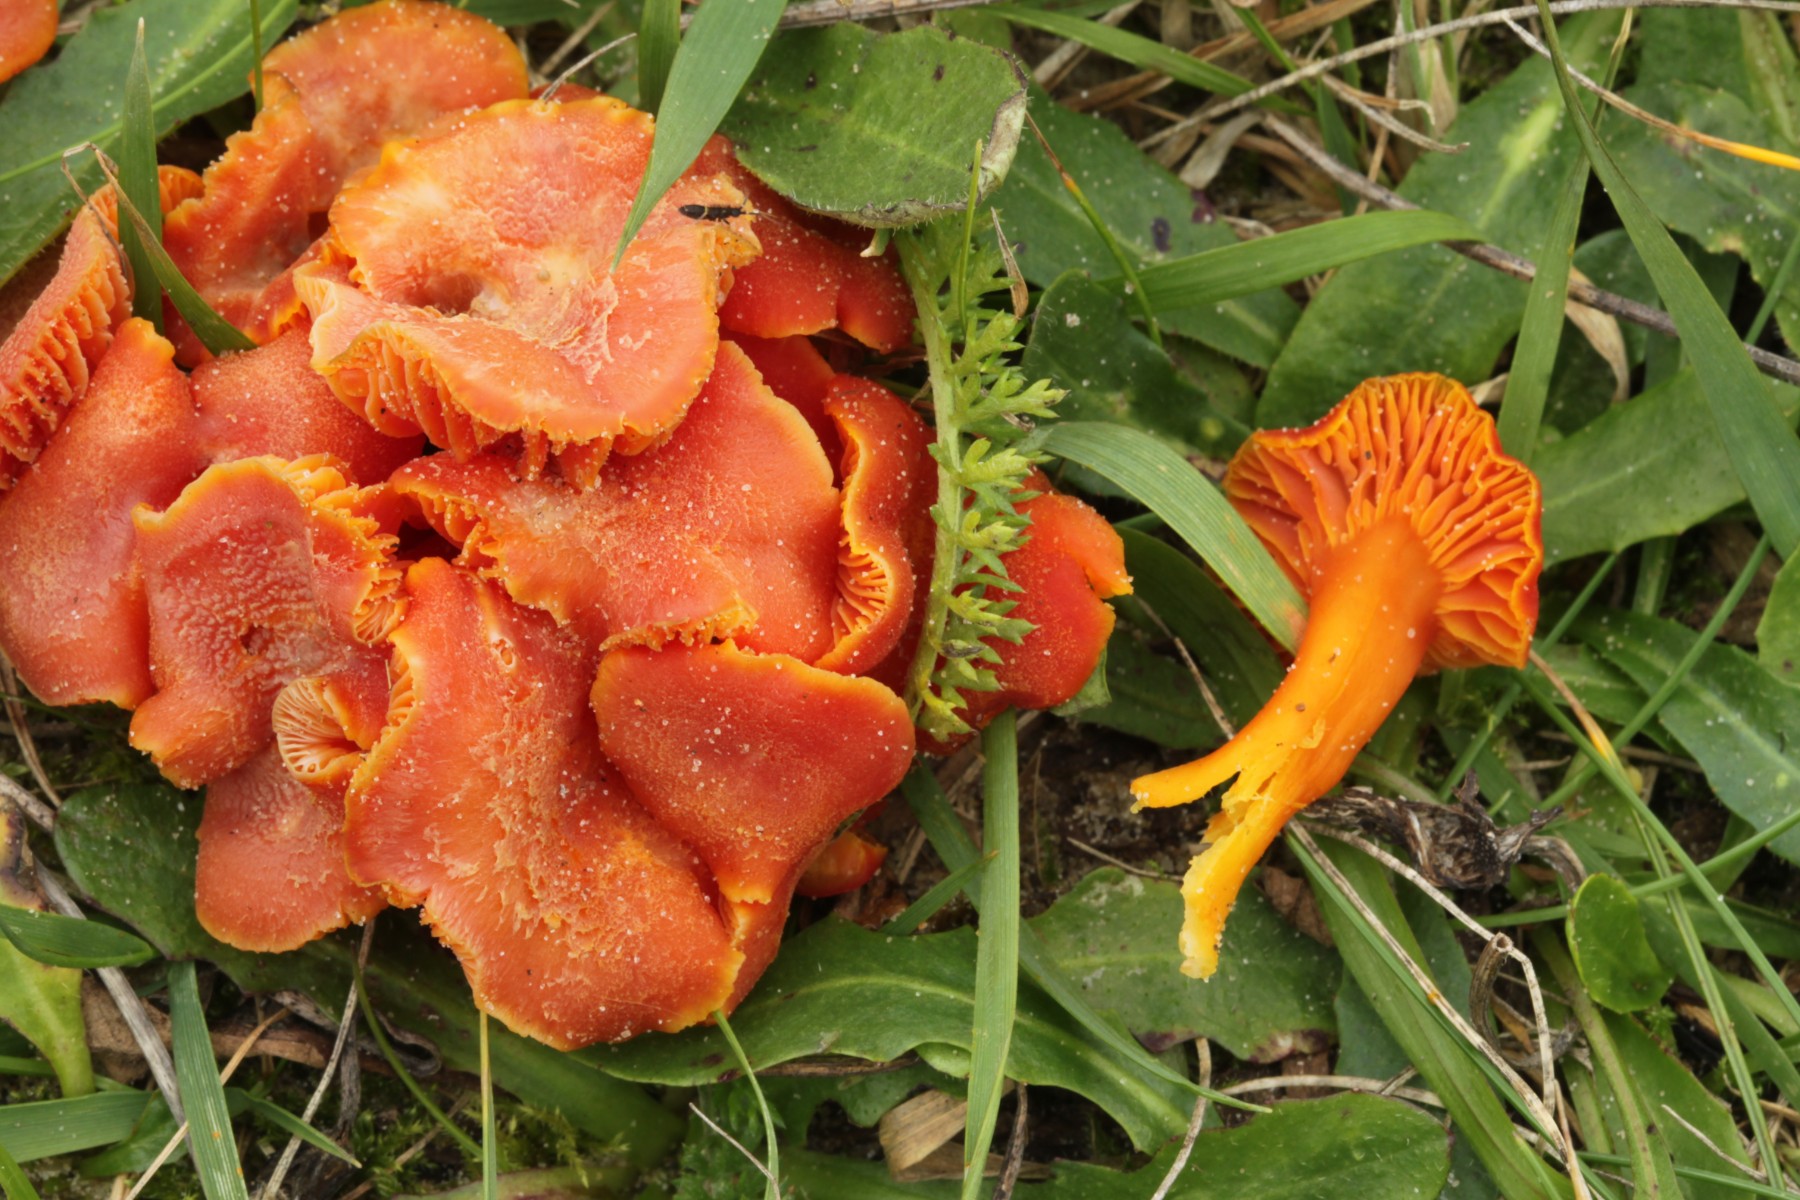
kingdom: Fungi
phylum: Basidiomycota
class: Agaricomycetes
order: Agaricales
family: Hygrophoraceae
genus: Hygrocybe
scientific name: Hygrocybe
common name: vokshat
